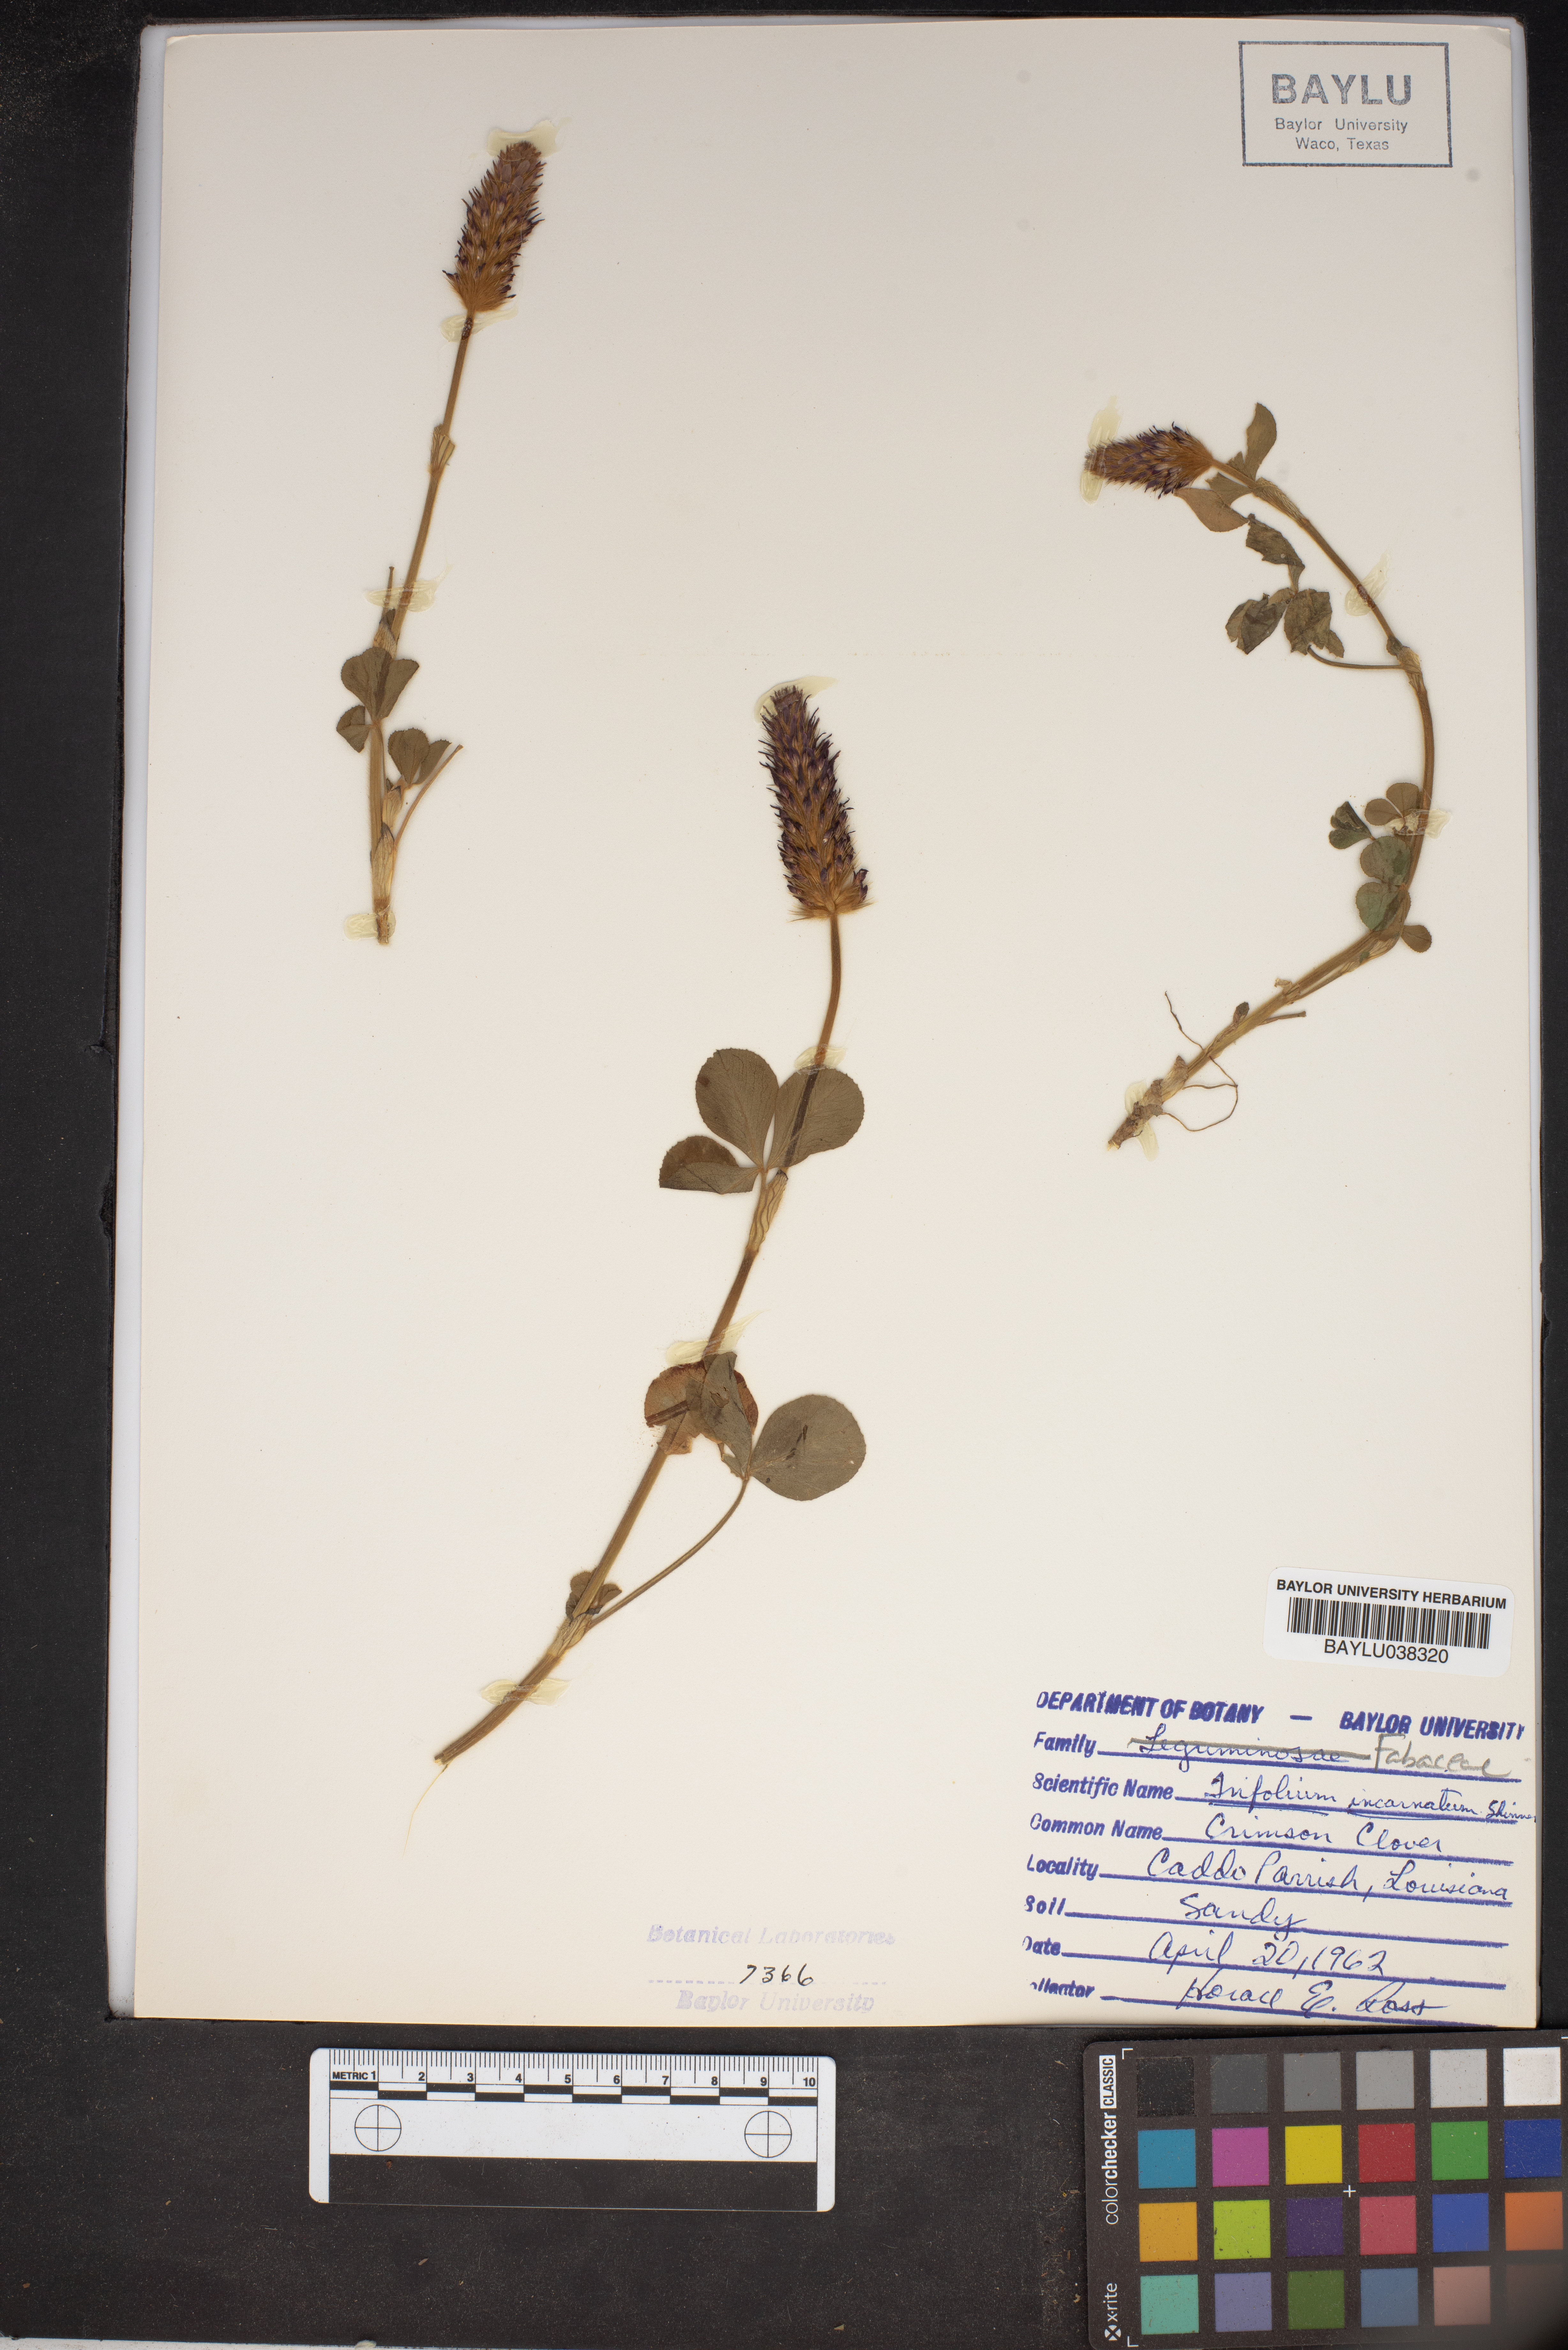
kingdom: Plantae
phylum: Tracheophyta
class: Magnoliopsida
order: Fabales
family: Fabaceae
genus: Trifolium
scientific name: Trifolium incarnatum
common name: Crimson clover
